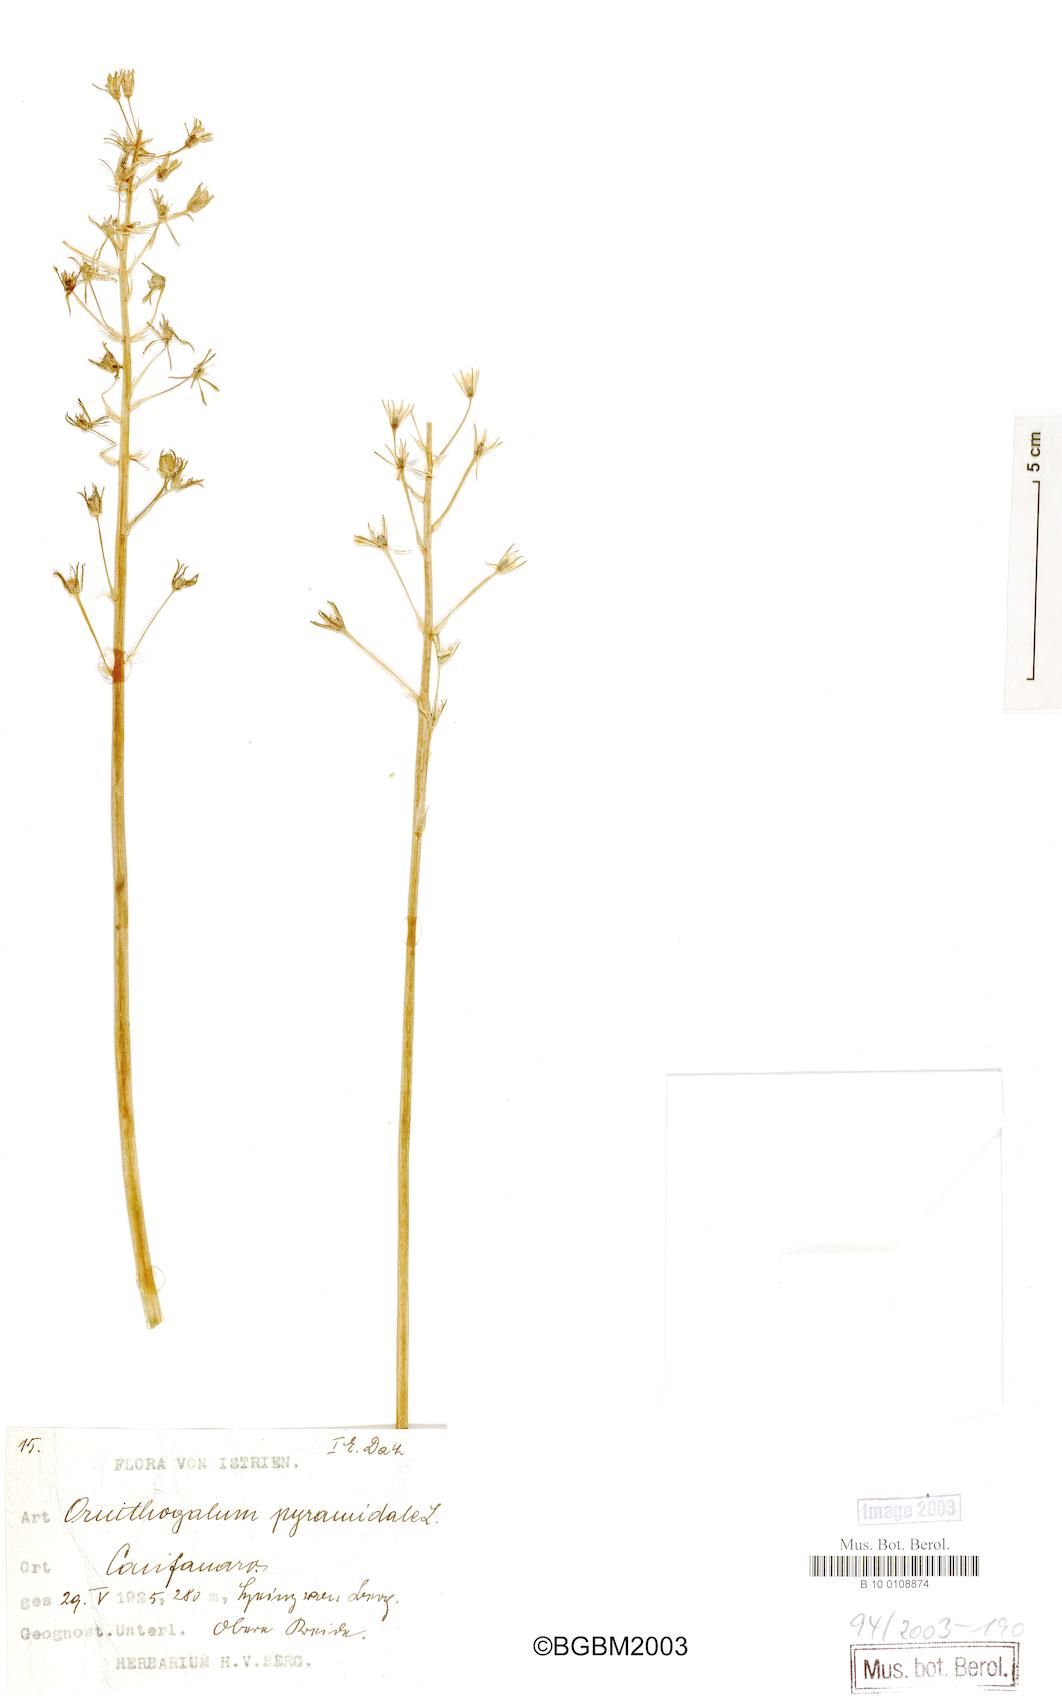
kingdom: Plantae
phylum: Tracheophyta
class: Liliopsida
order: Asparagales
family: Asparagaceae
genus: Ornithogalum
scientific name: Ornithogalum pyramidale
